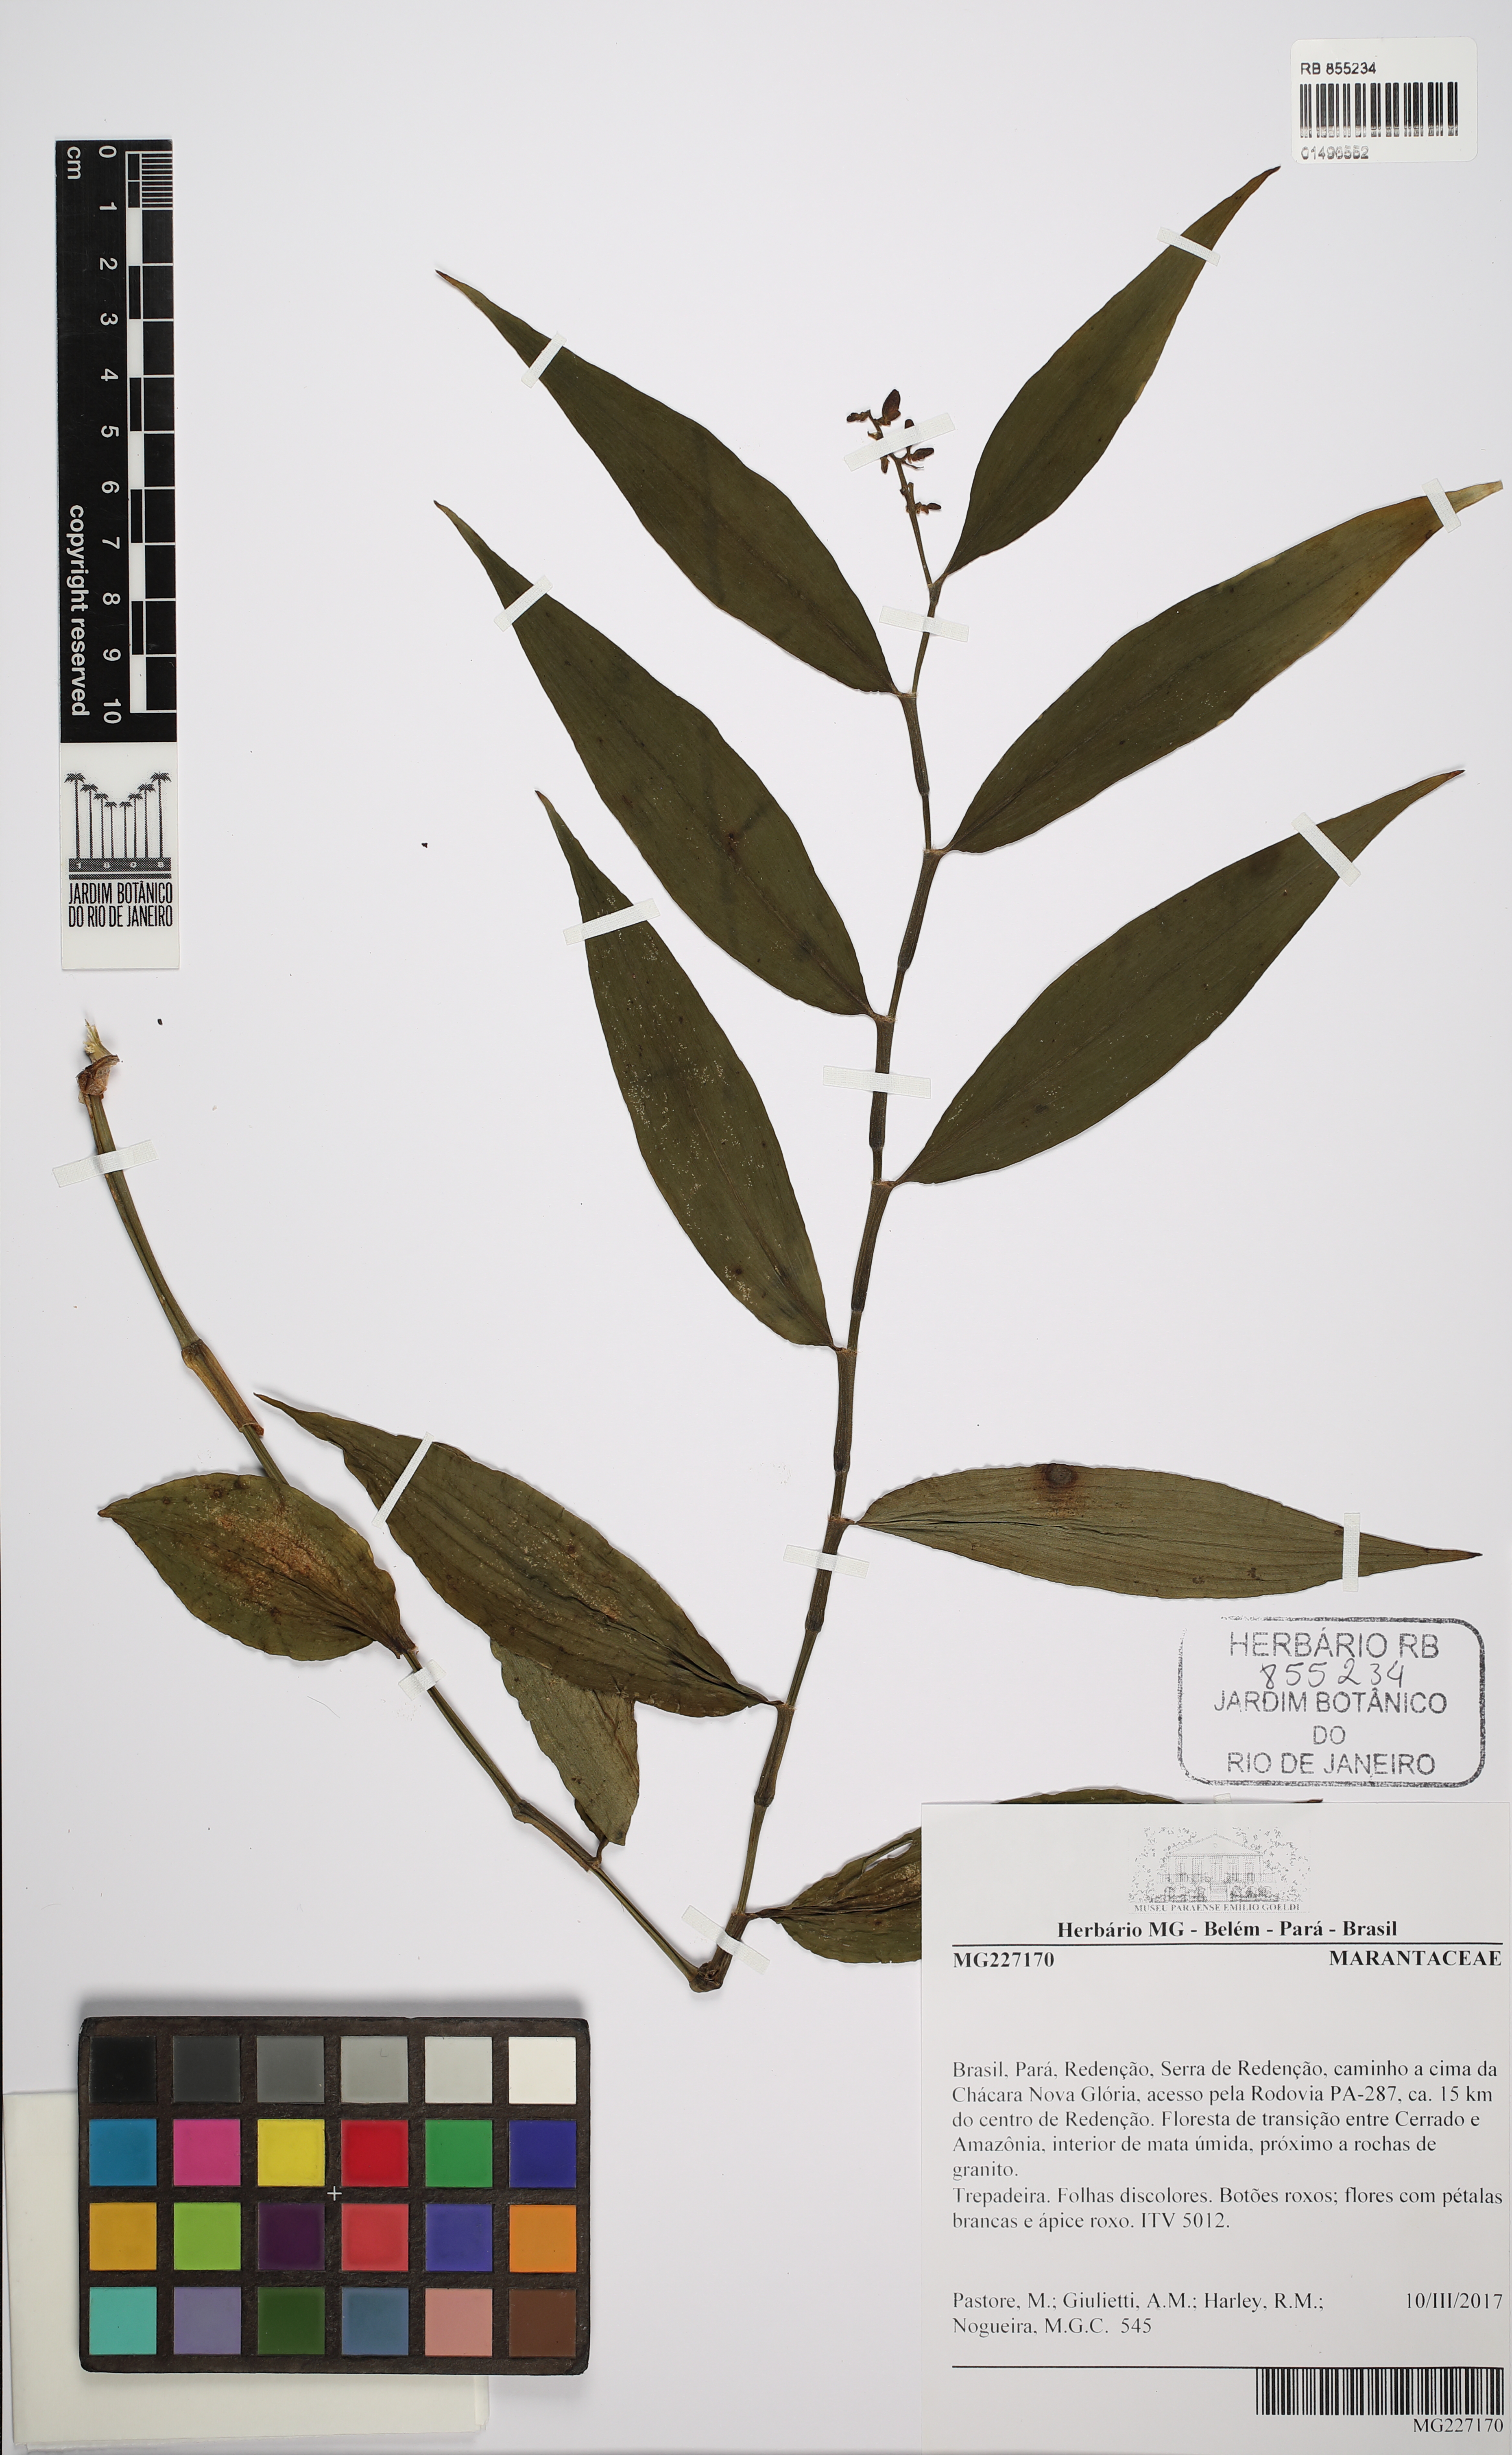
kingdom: Plantae
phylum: Tracheophyta
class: Liliopsida
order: Zingiberales
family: Marantaceae
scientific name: Marantaceae
